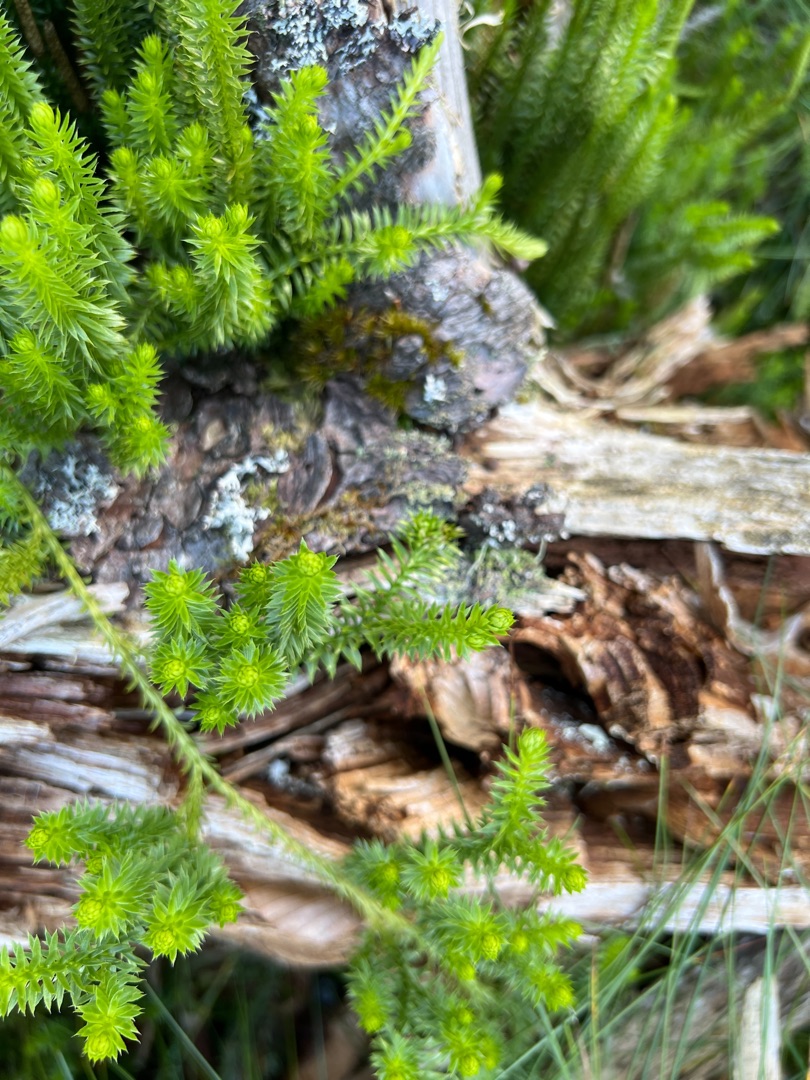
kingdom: Plantae
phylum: Tracheophyta
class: Lycopodiopsida
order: Lycopodiales
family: Lycopodiaceae
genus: Spinulum
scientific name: Spinulum annotinum
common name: Femradet ulvefod
